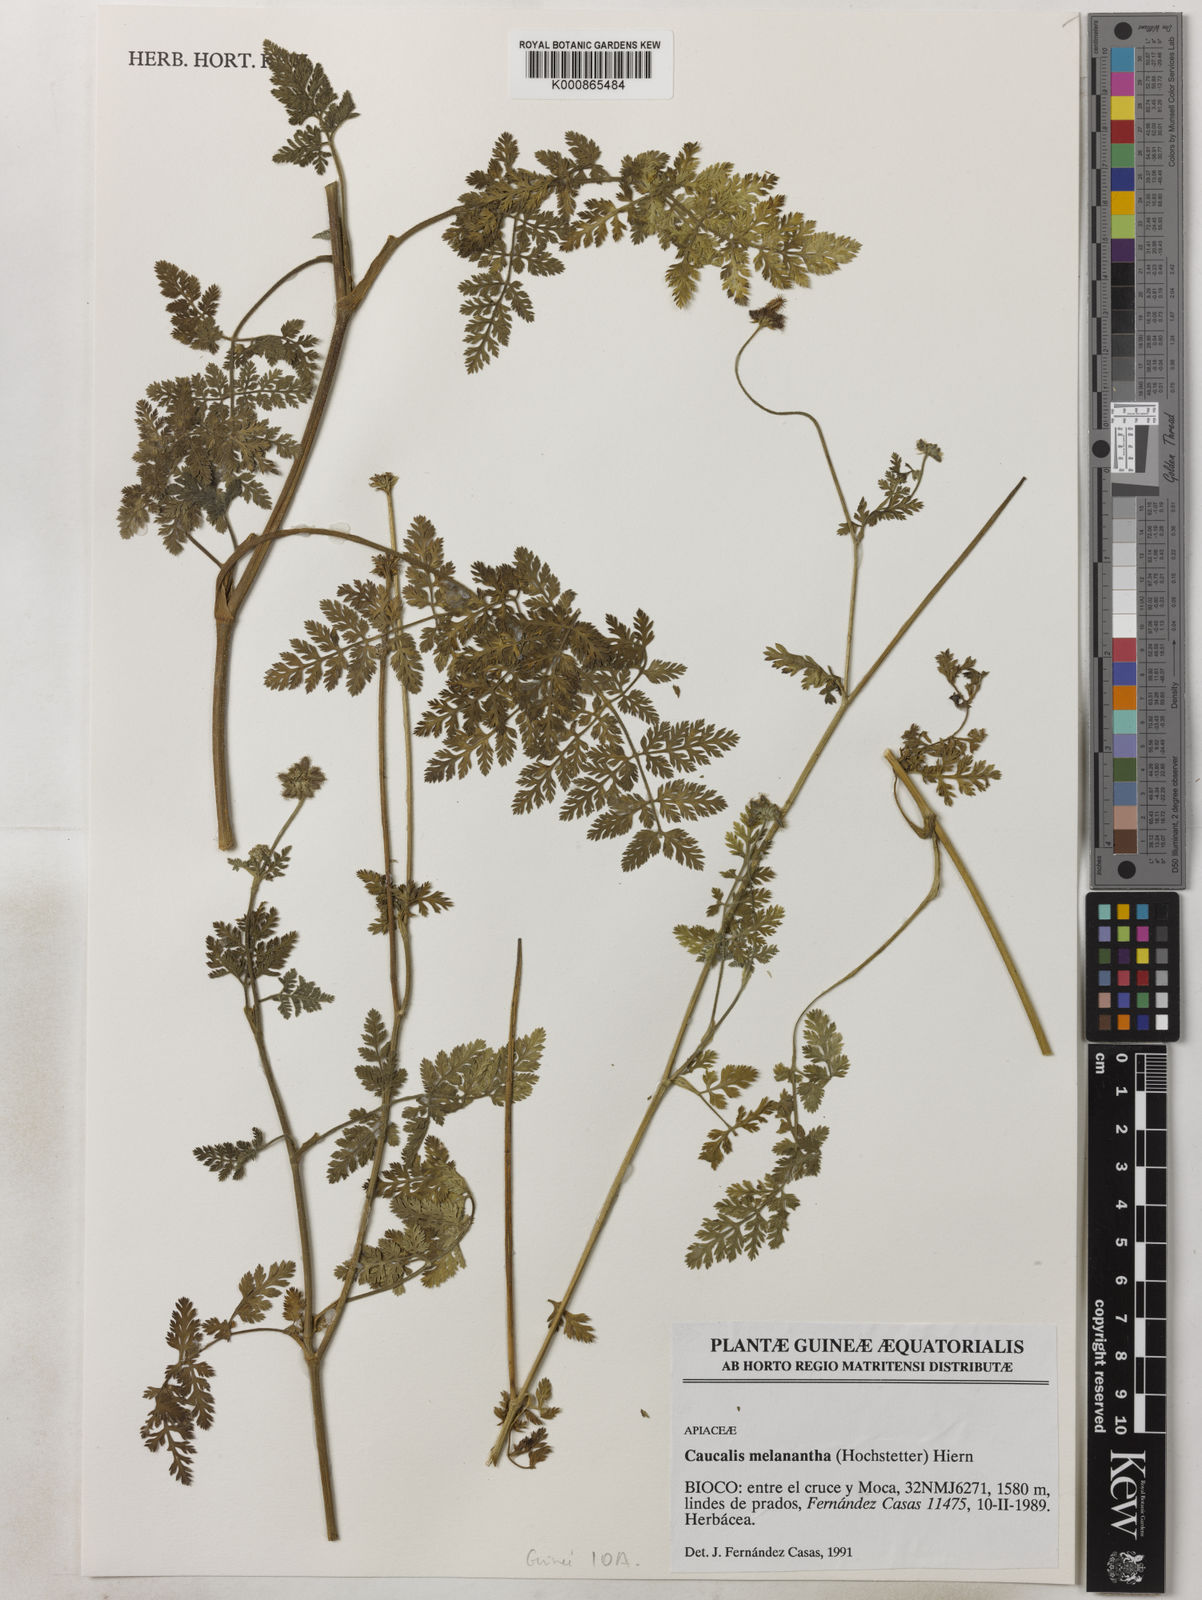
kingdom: Plantae
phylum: Tracheophyta
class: Magnoliopsida
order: Apiales
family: Apiaceae
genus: Daucus
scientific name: Daucus melananthus
